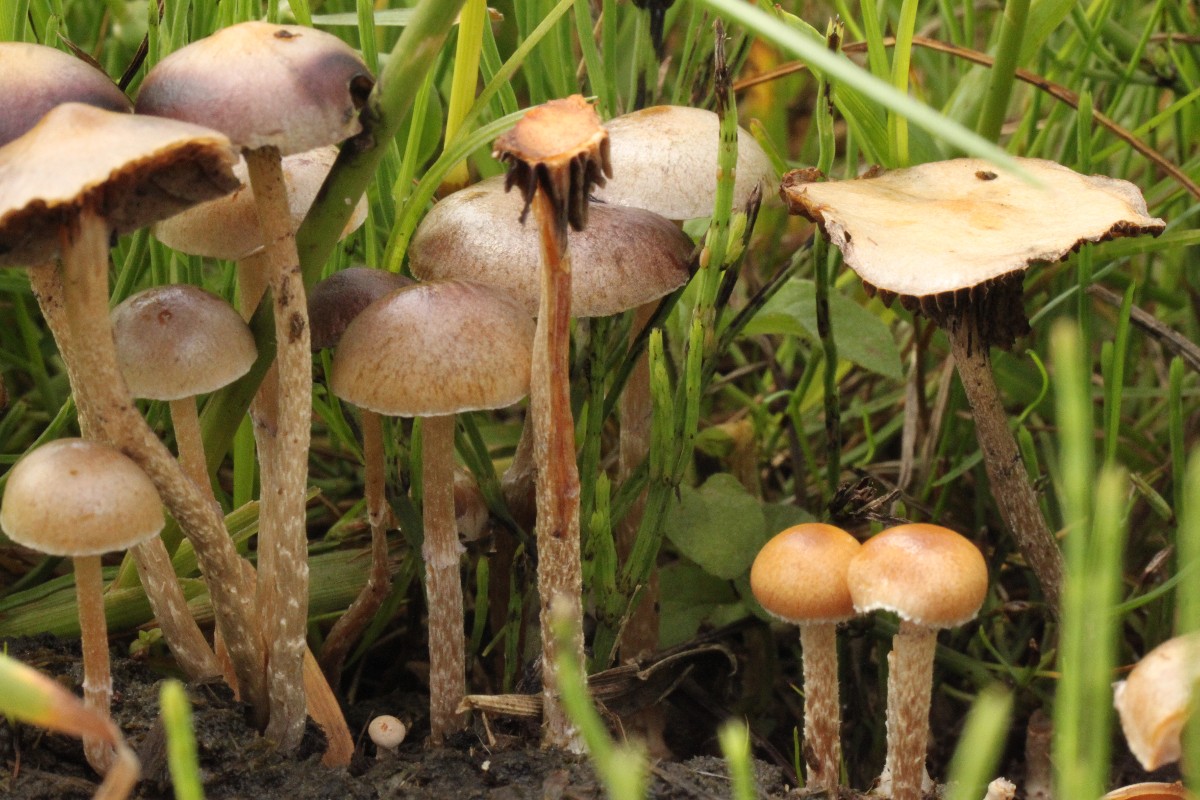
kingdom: Fungi
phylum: Basidiomycota
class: Agaricomycetes
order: Agaricales
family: Bolbitiaceae
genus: Panaeolus
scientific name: Panaeolus semiovatus
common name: ring-glanshat
